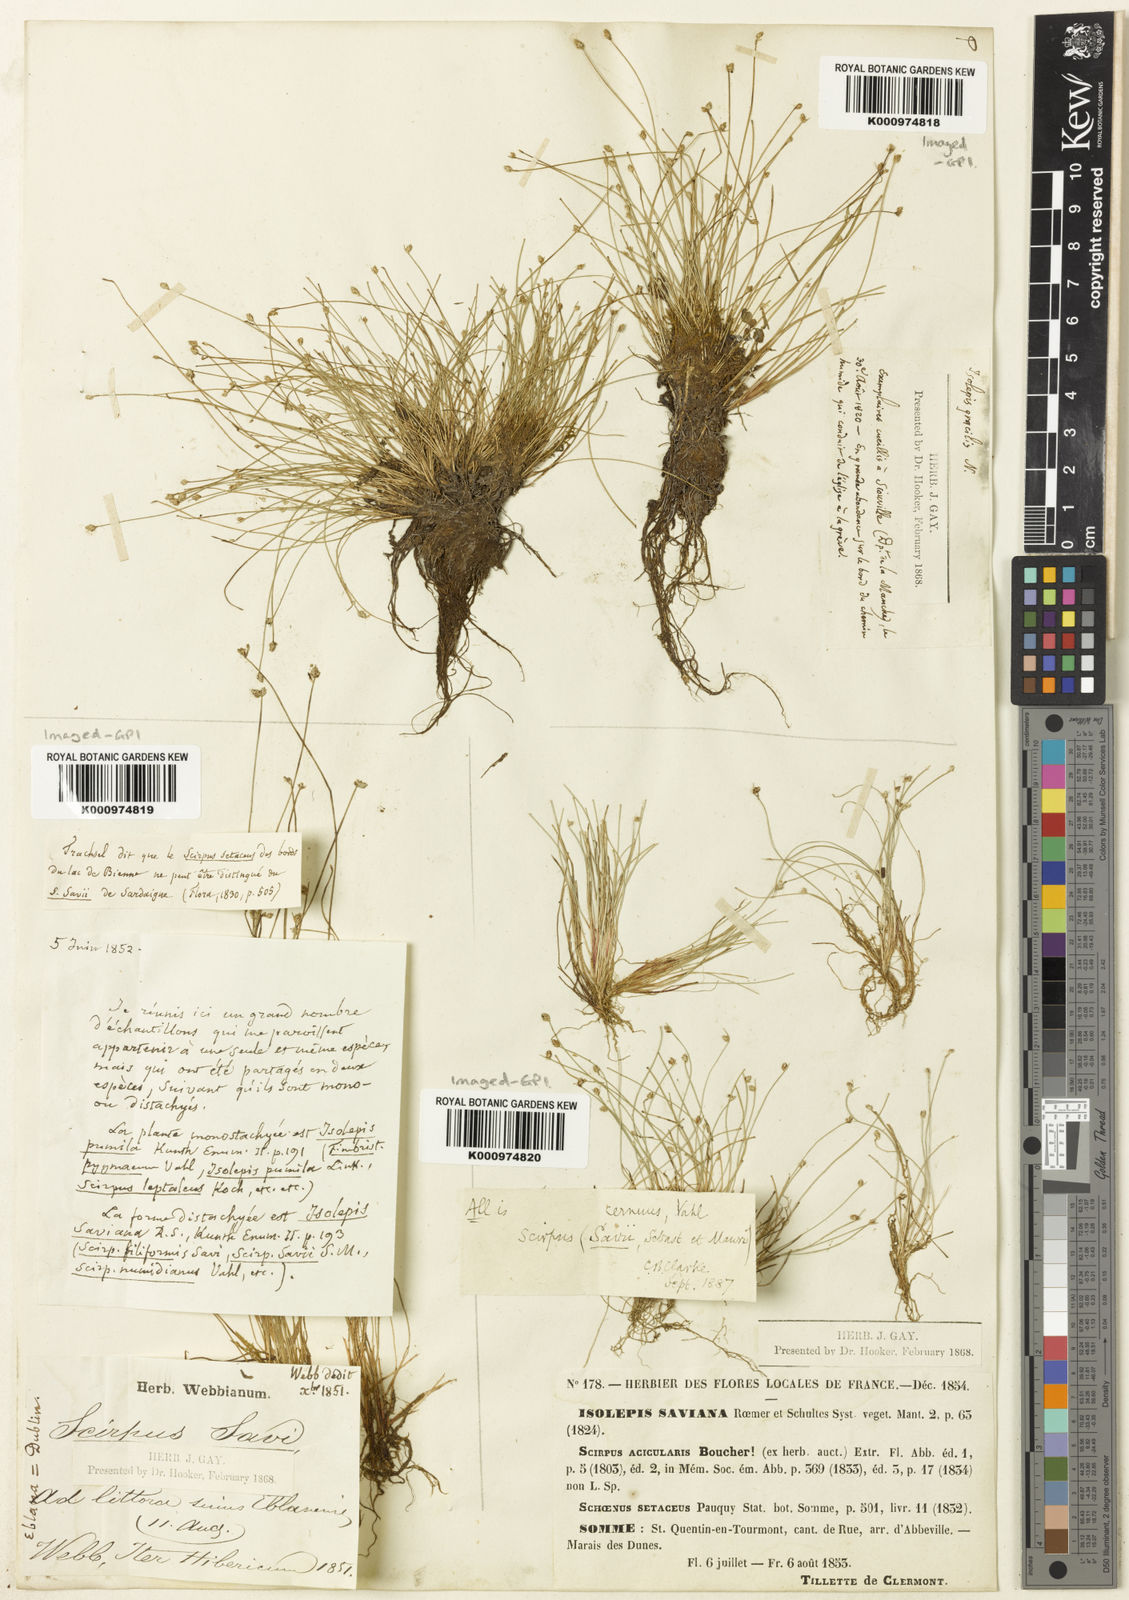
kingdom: Plantae
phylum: Tracheophyta
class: Liliopsida
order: Poales
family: Cyperaceae
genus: Isolepis
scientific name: Isolepis cernua
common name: Slender club-rush
